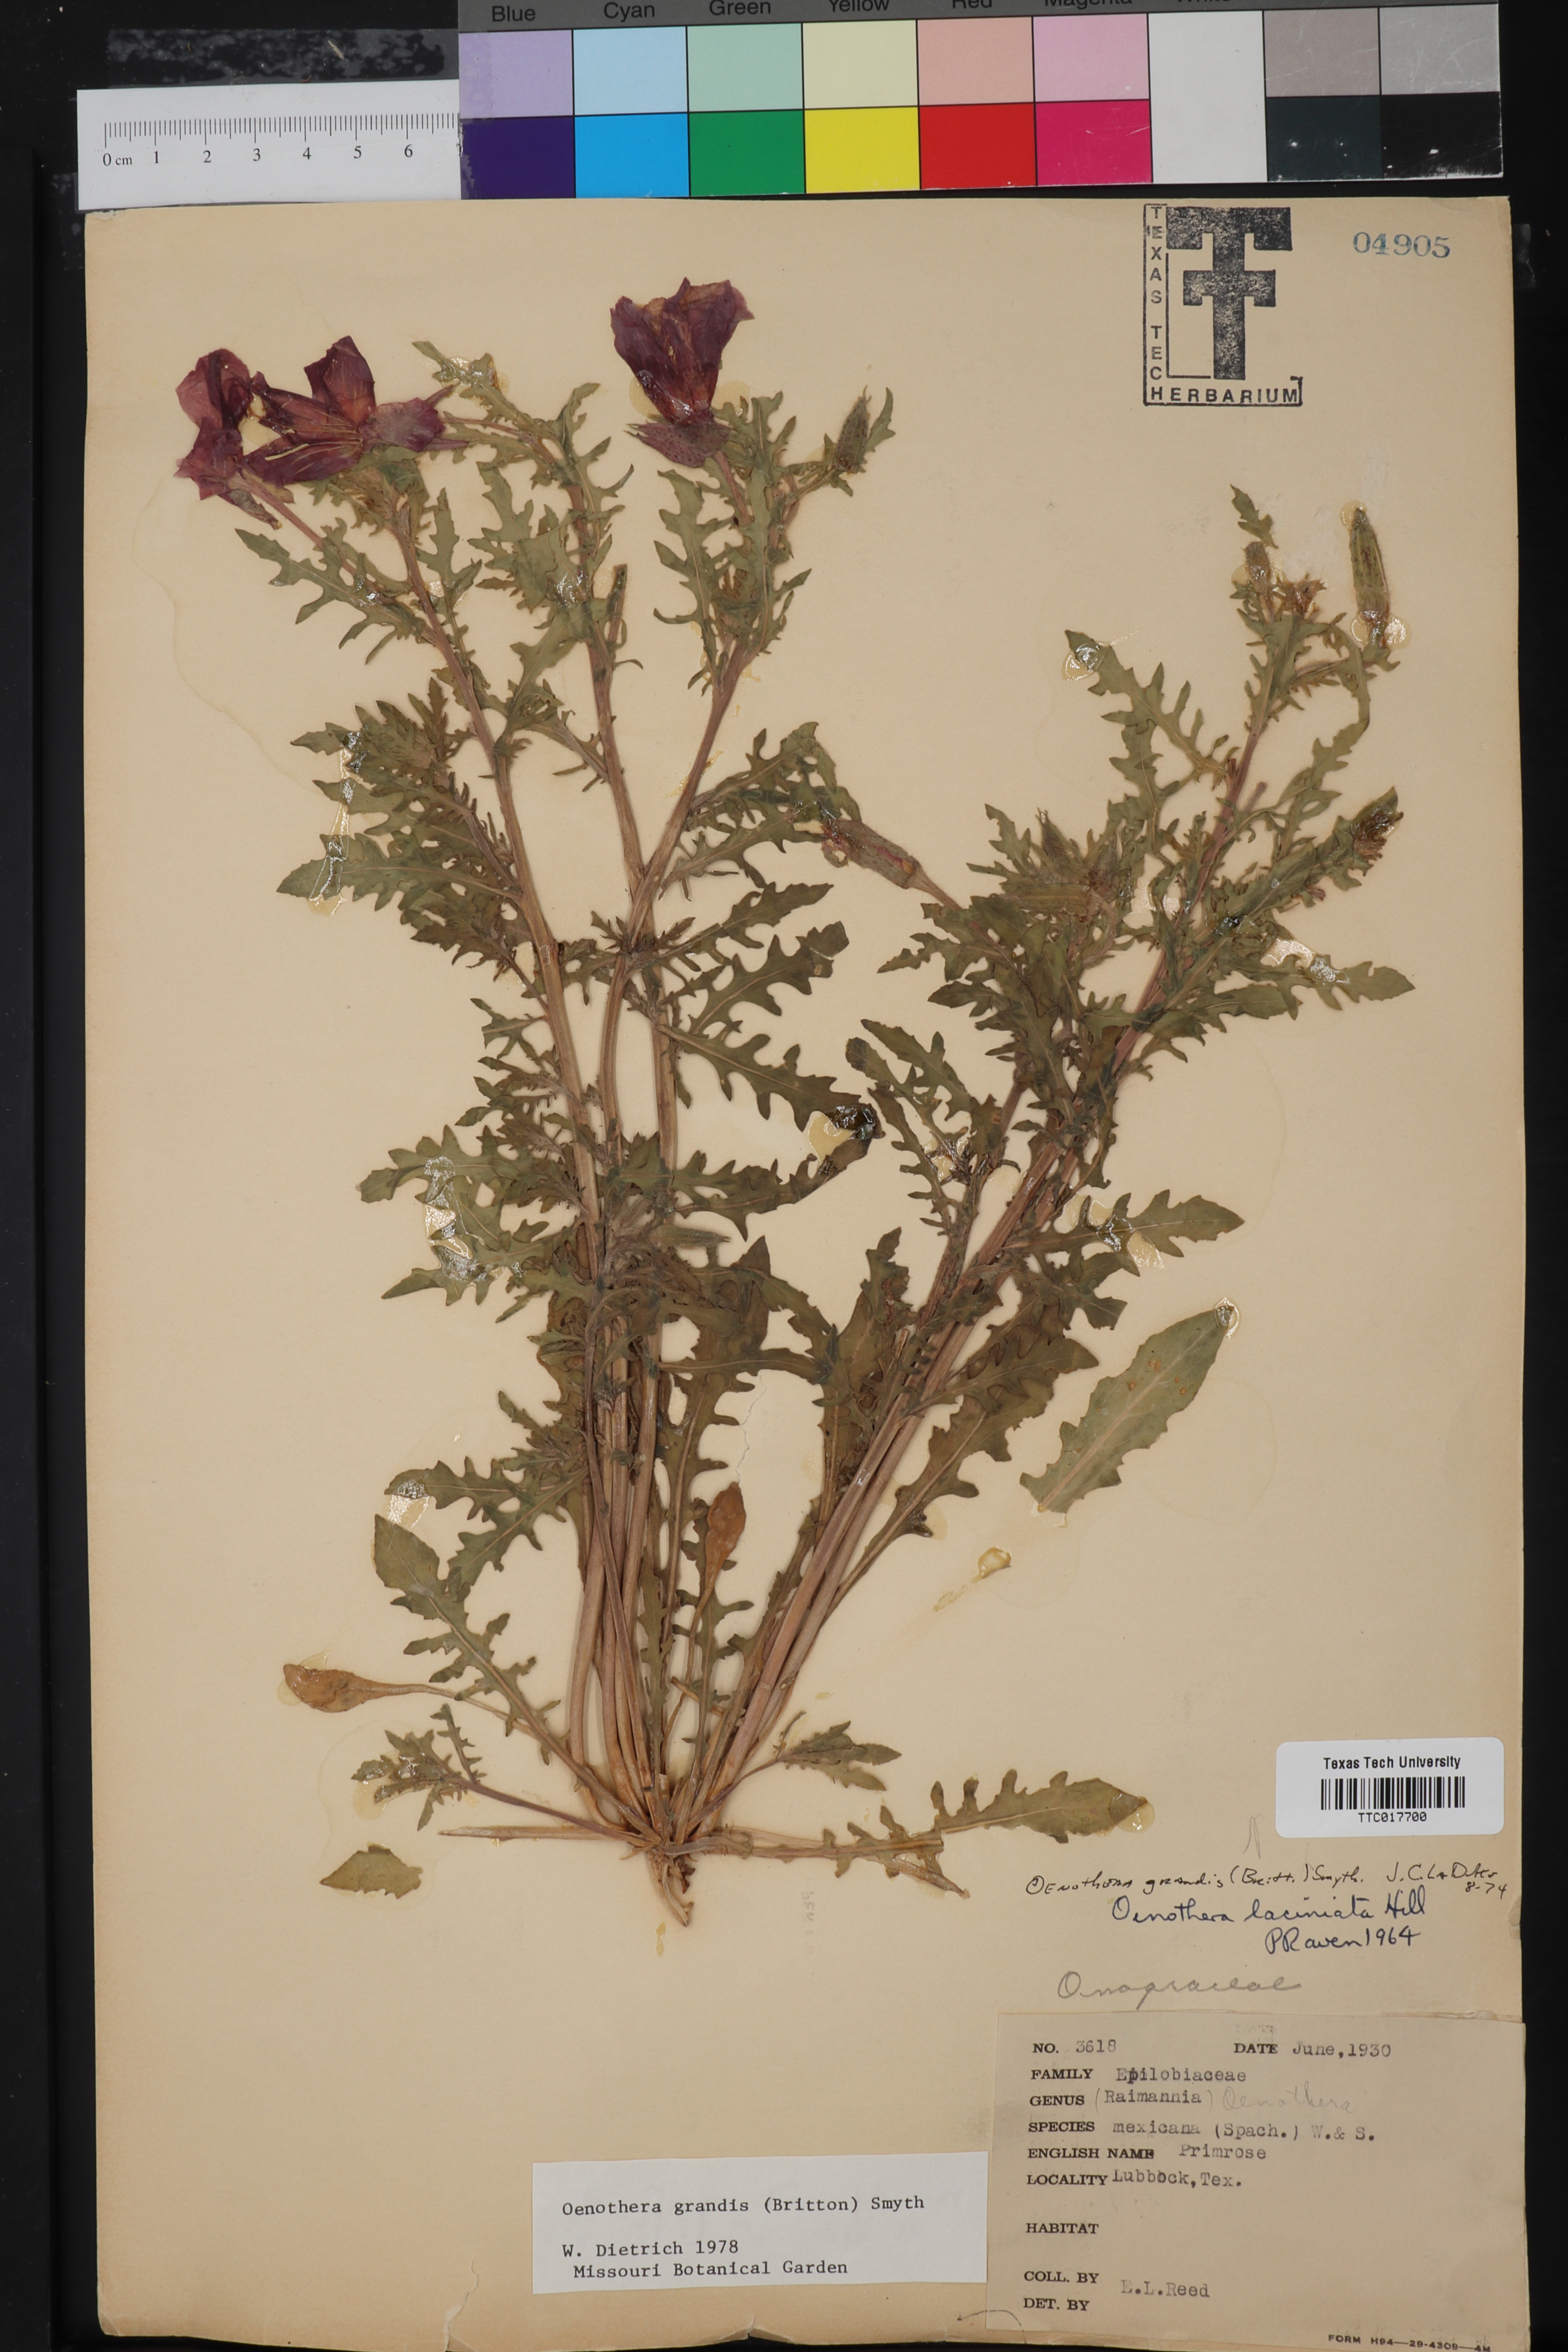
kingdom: Plantae
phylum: Tracheophyta
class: Magnoliopsida
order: Myrtales
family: Onagraceae
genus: Oenothera
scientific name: Oenothera grandis
